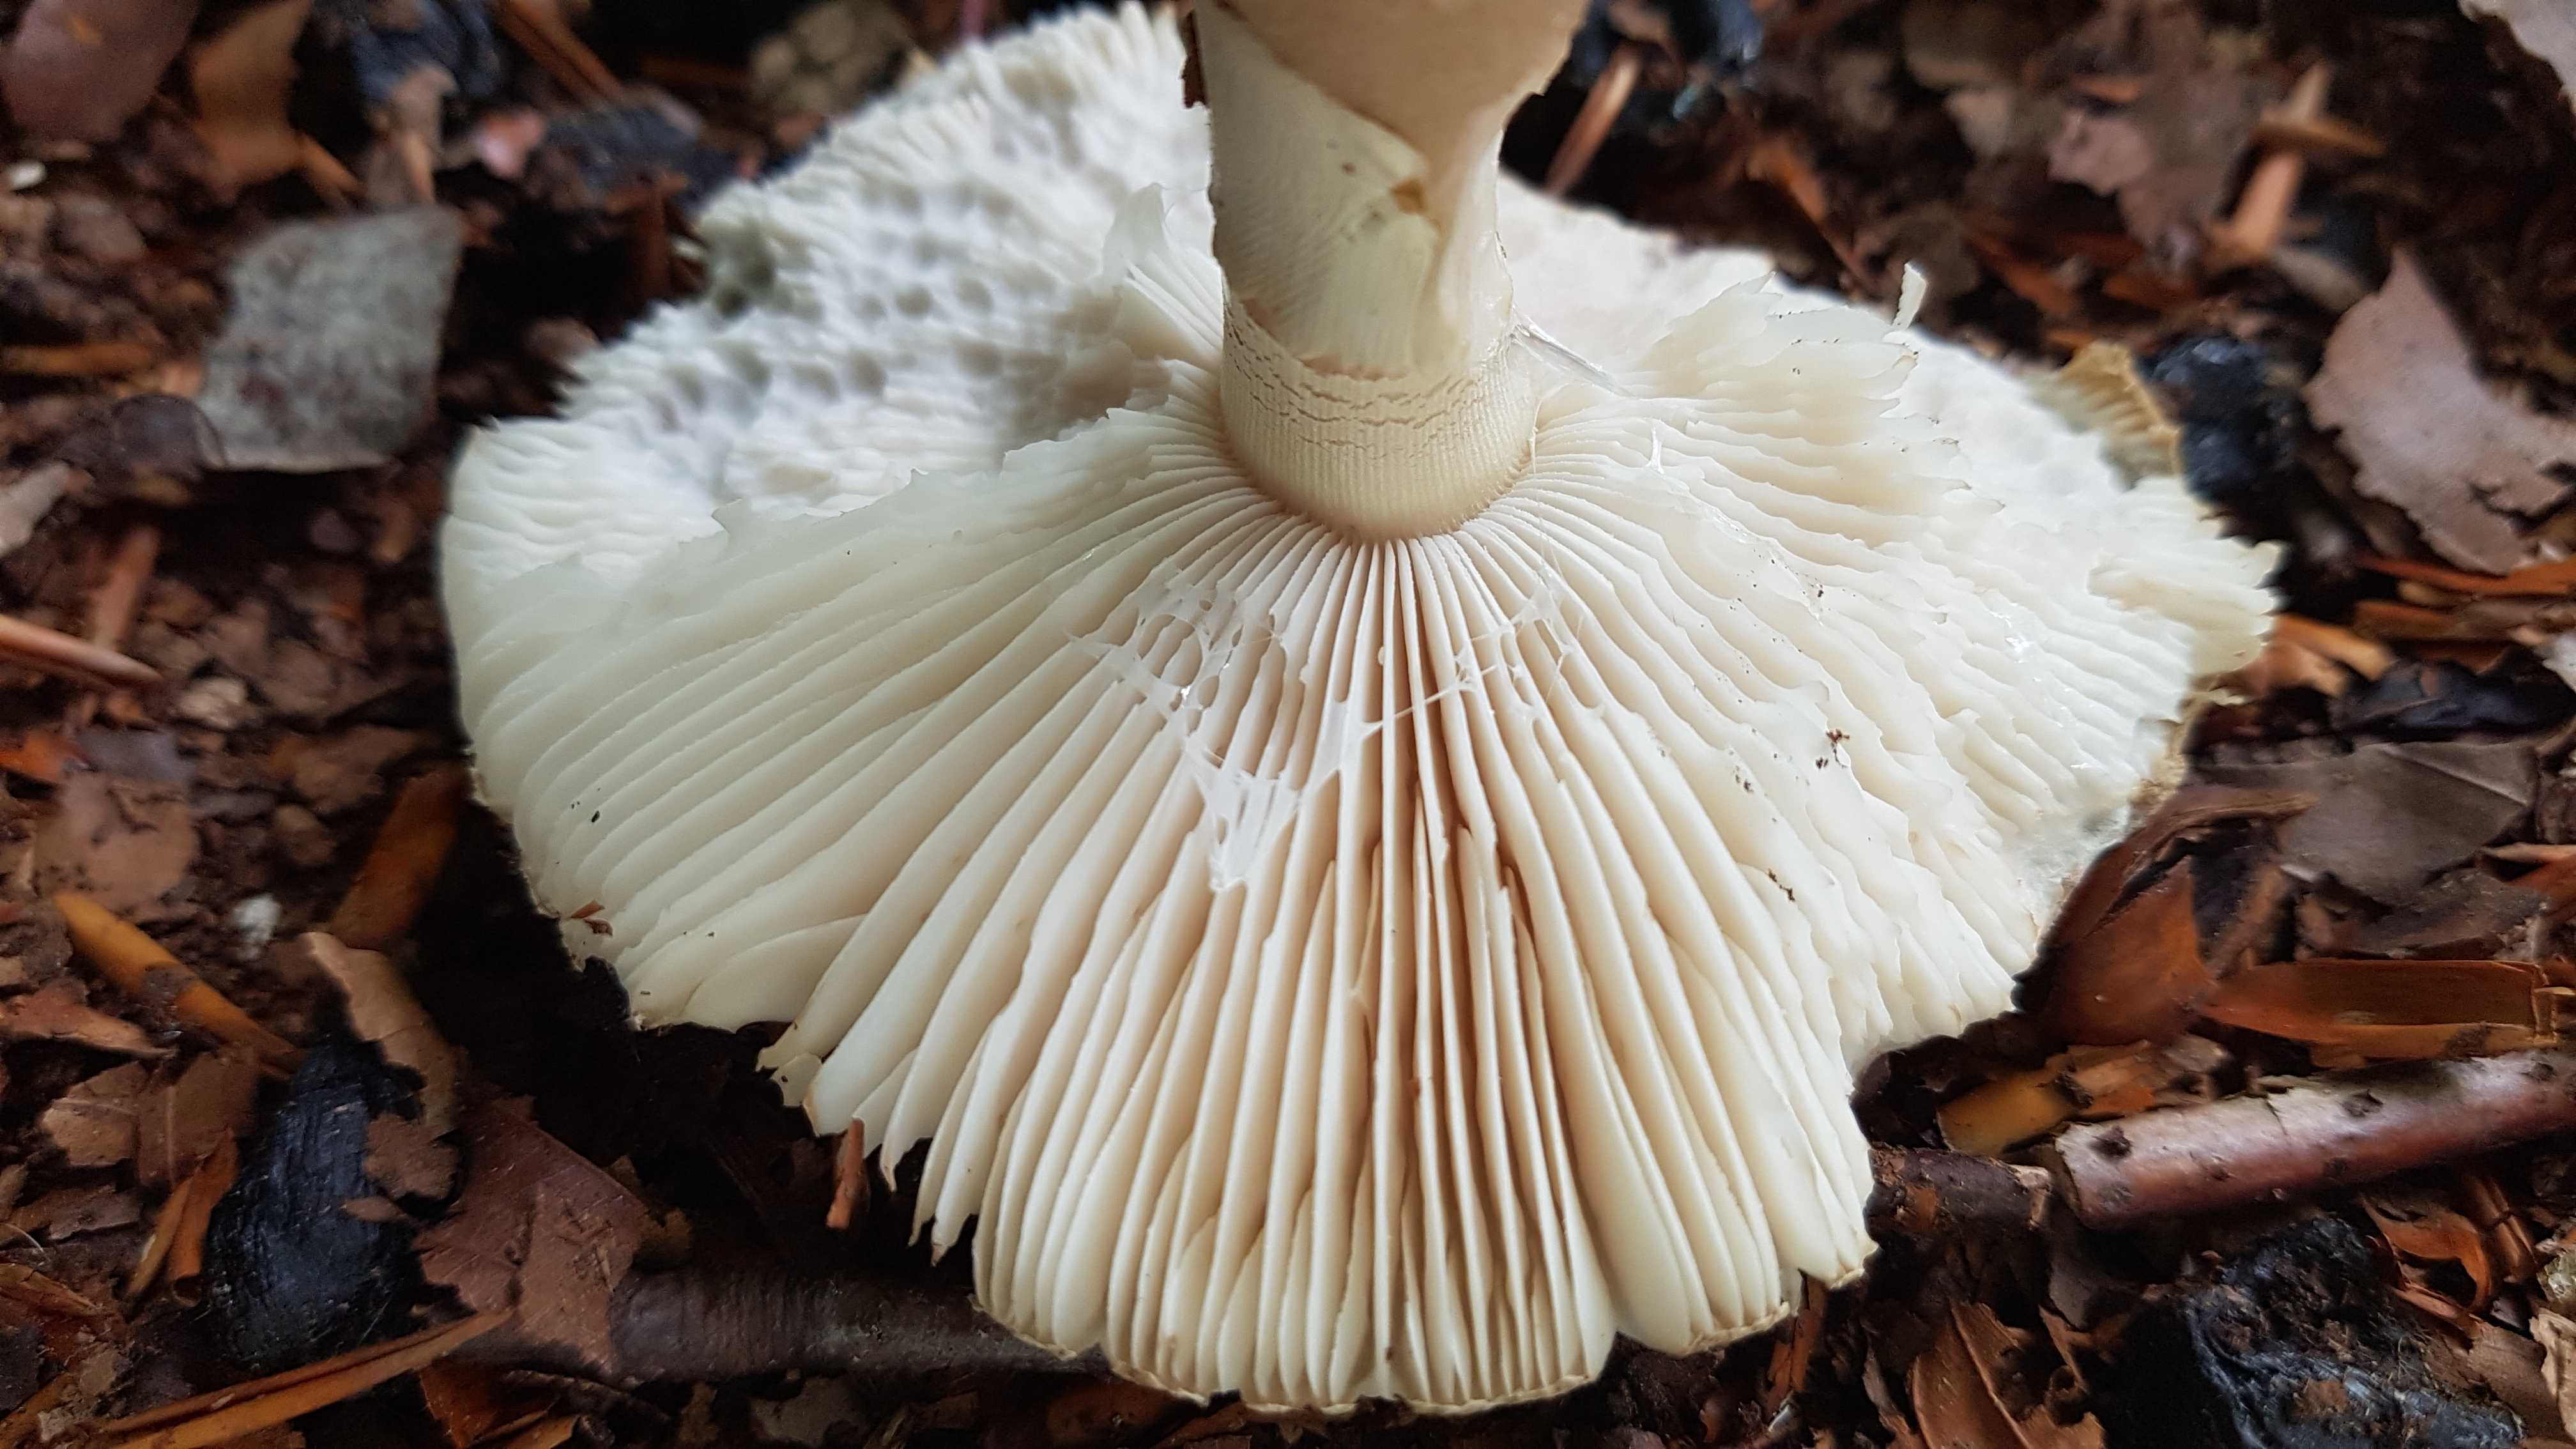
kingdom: Fungi
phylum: Basidiomycota
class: Agaricomycetes
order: Agaricales
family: Amanitaceae
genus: Amanita
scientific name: Amanita rubescens
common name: rødmende fluesvamp
